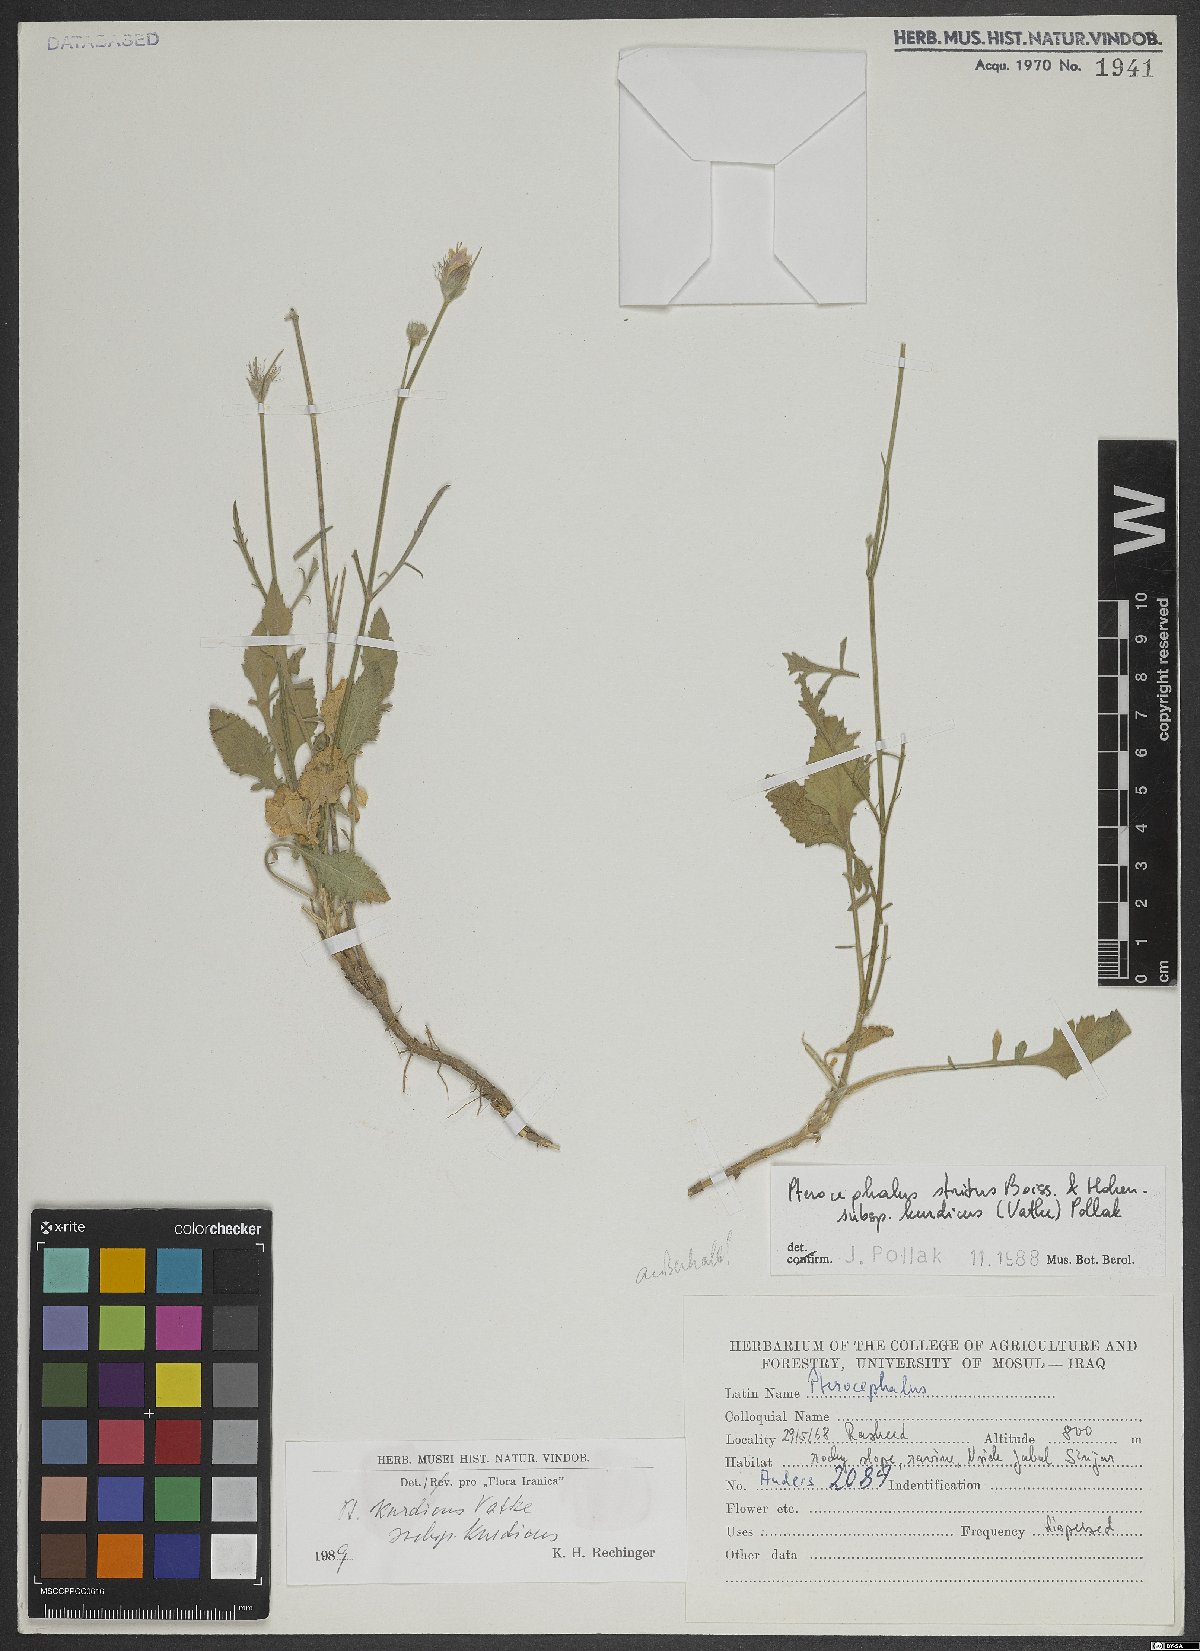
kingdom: Plantae
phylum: Tracheophyta
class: Magnoliopsida
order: Dipsacales
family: Caprifoliaceae
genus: Pterocephalus
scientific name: Pterocephalus kurdicus
